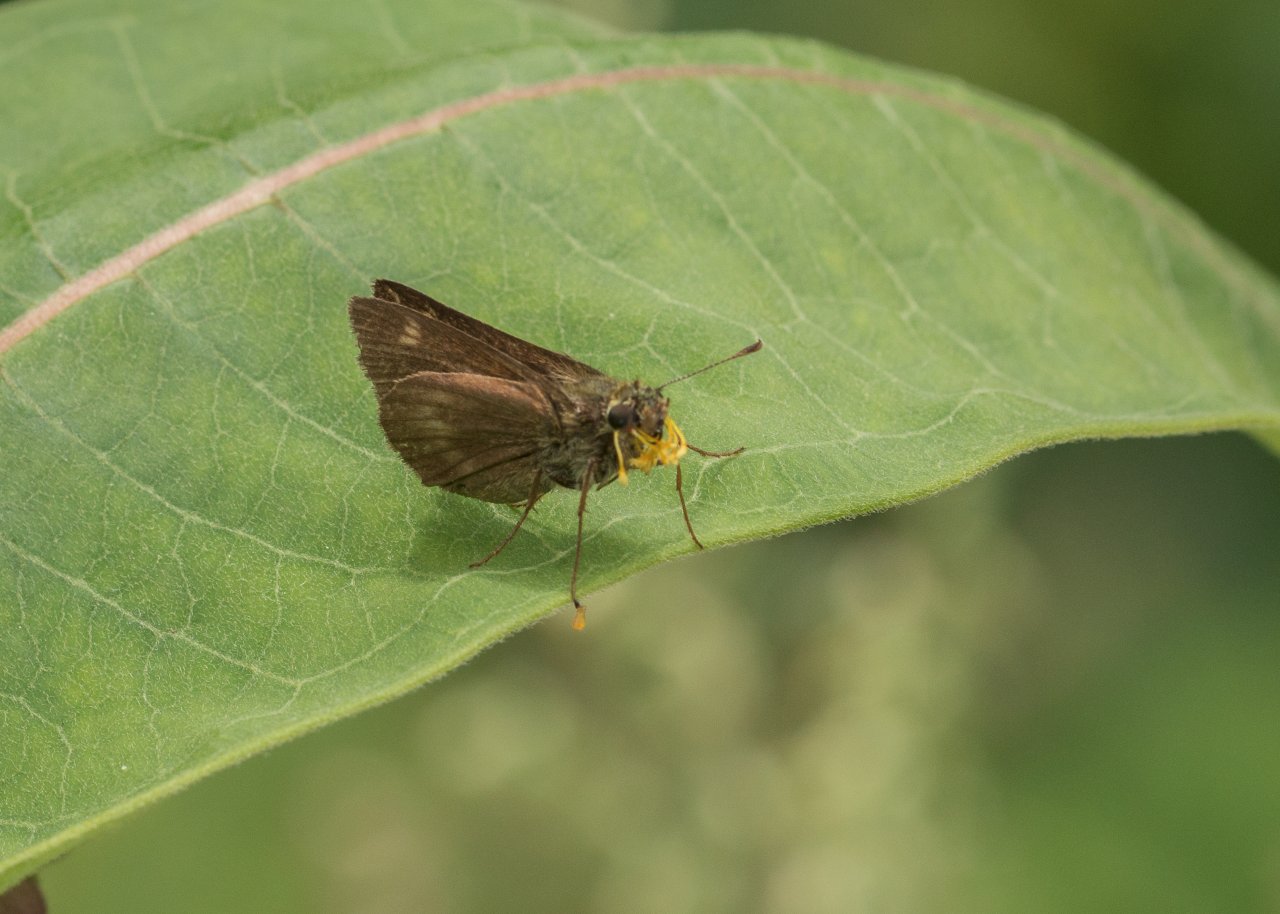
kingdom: Animalia
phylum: Arthropoda
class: Insecta
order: Lepidoptera
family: Hesperiidae
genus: Polites
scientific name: Polites themistocles
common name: Tawny-edged Skipper
